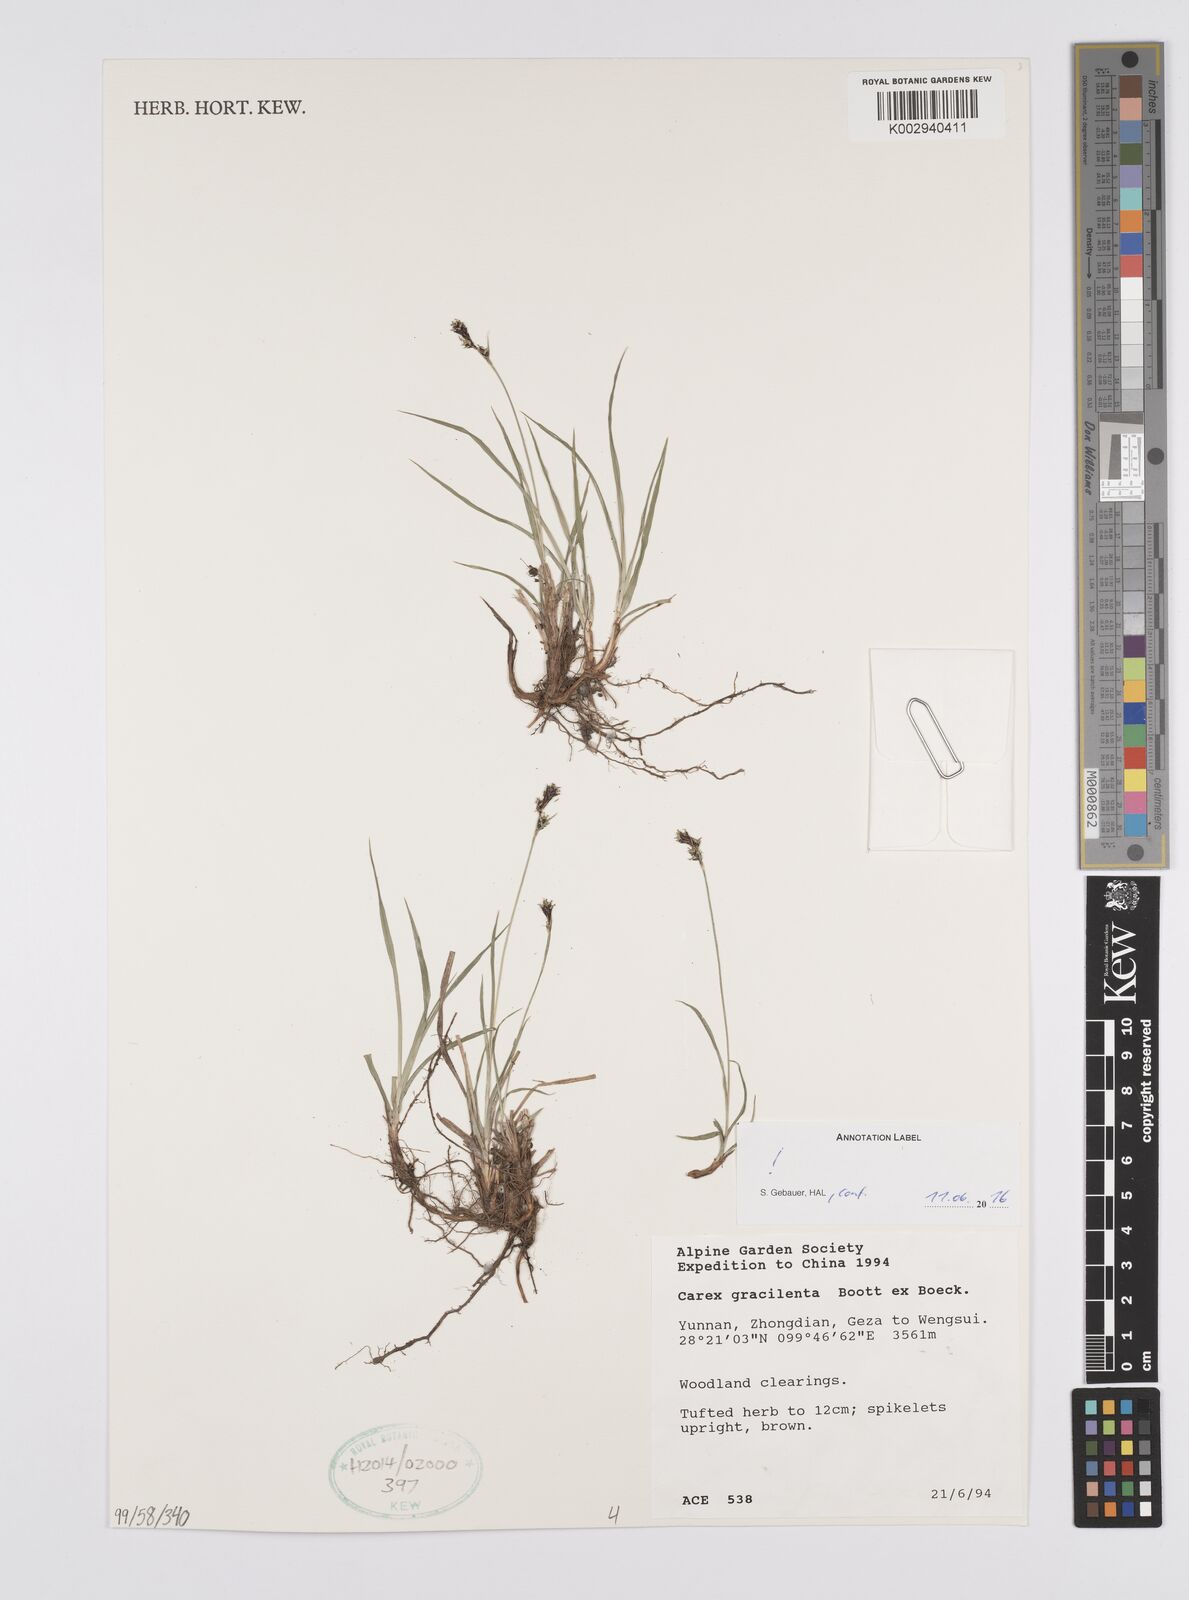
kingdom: Plantae
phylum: Tracheophyta
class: Liliopsida
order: Poales
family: Cyperaceae
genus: Carex
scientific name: Carex gracilenta
